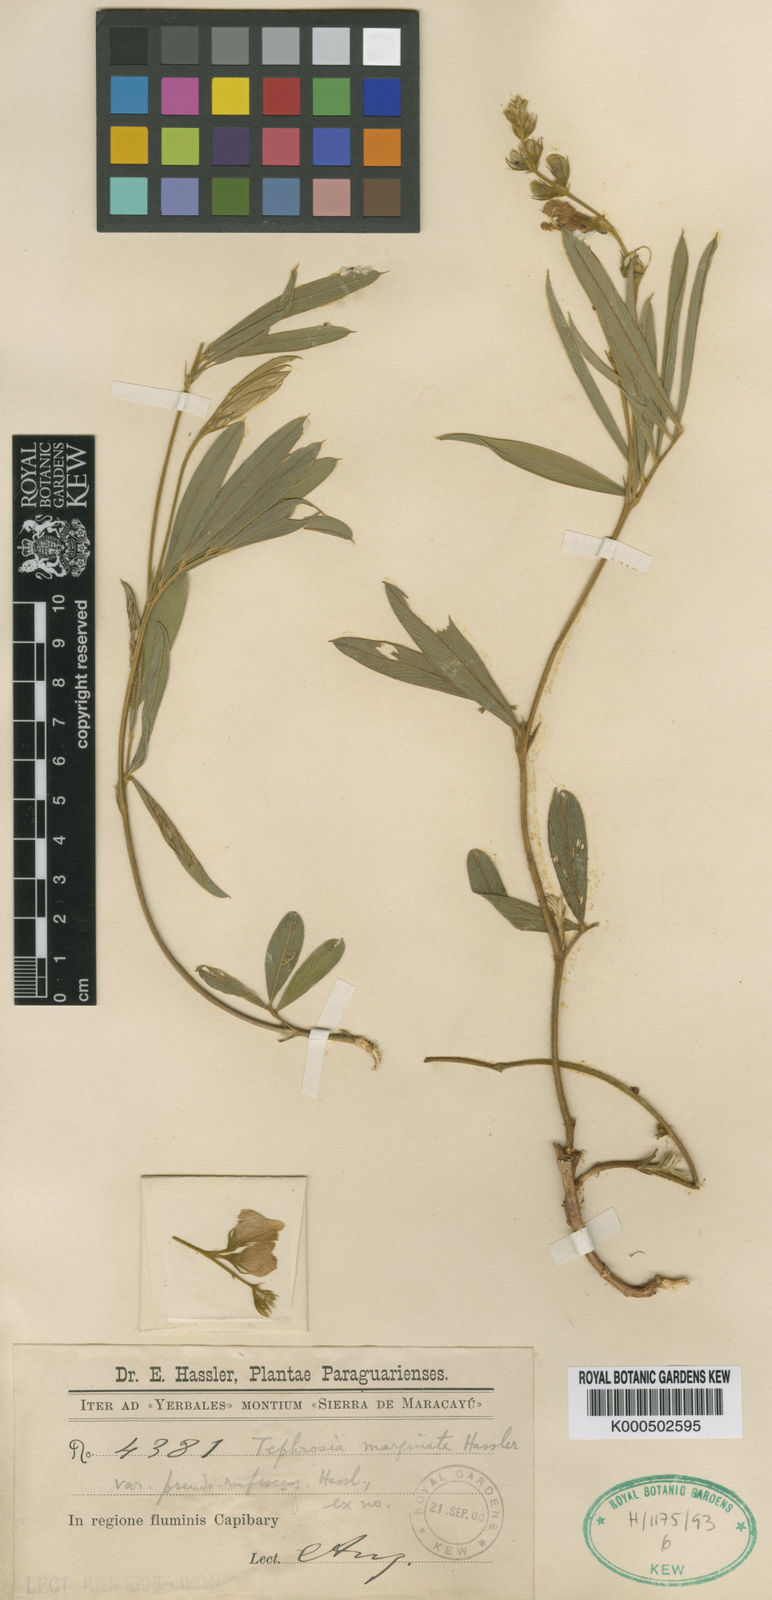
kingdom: Plantae
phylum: Tracheophyta
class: Magnoliopsida
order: Fabales
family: Fabaceae
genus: Tephrosia
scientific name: Tephrosia marginata
